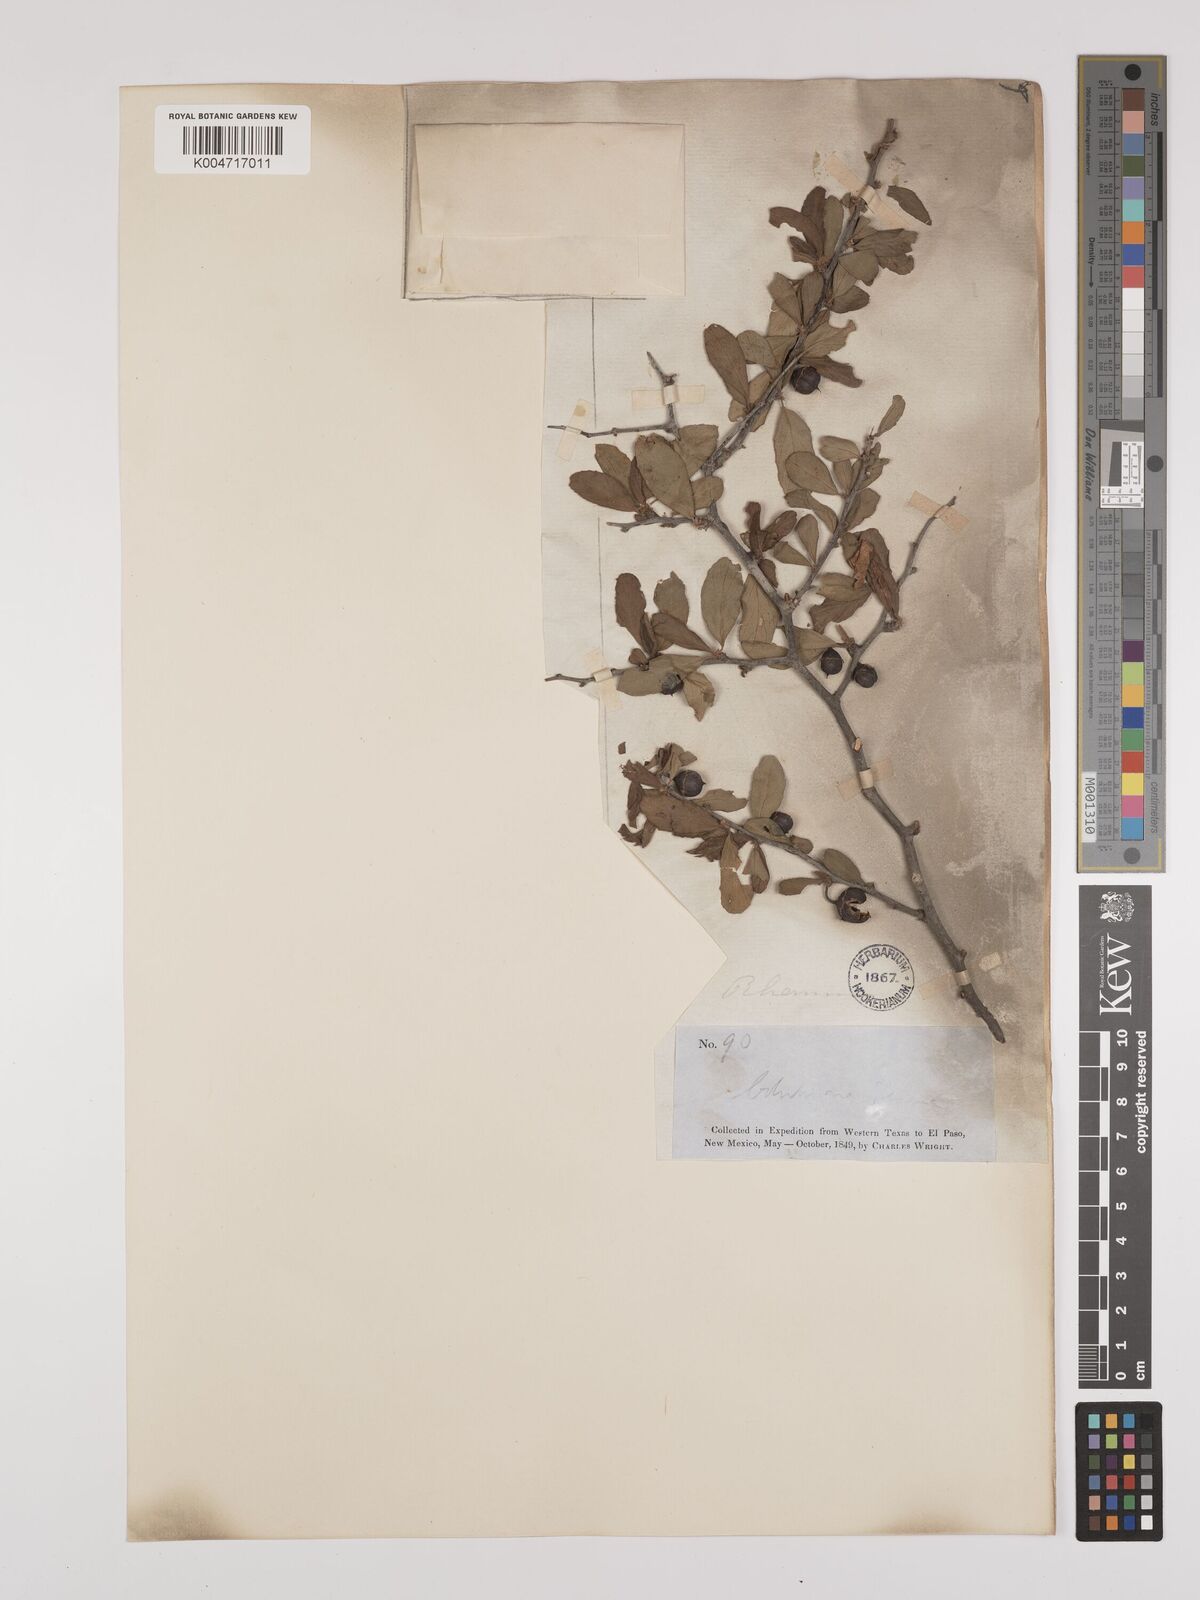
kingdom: Plantae
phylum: Tracheophyta
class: Magnoliopsida
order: Rosales
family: Rhamnaceae
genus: Colubrina
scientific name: Colubrina texensis
